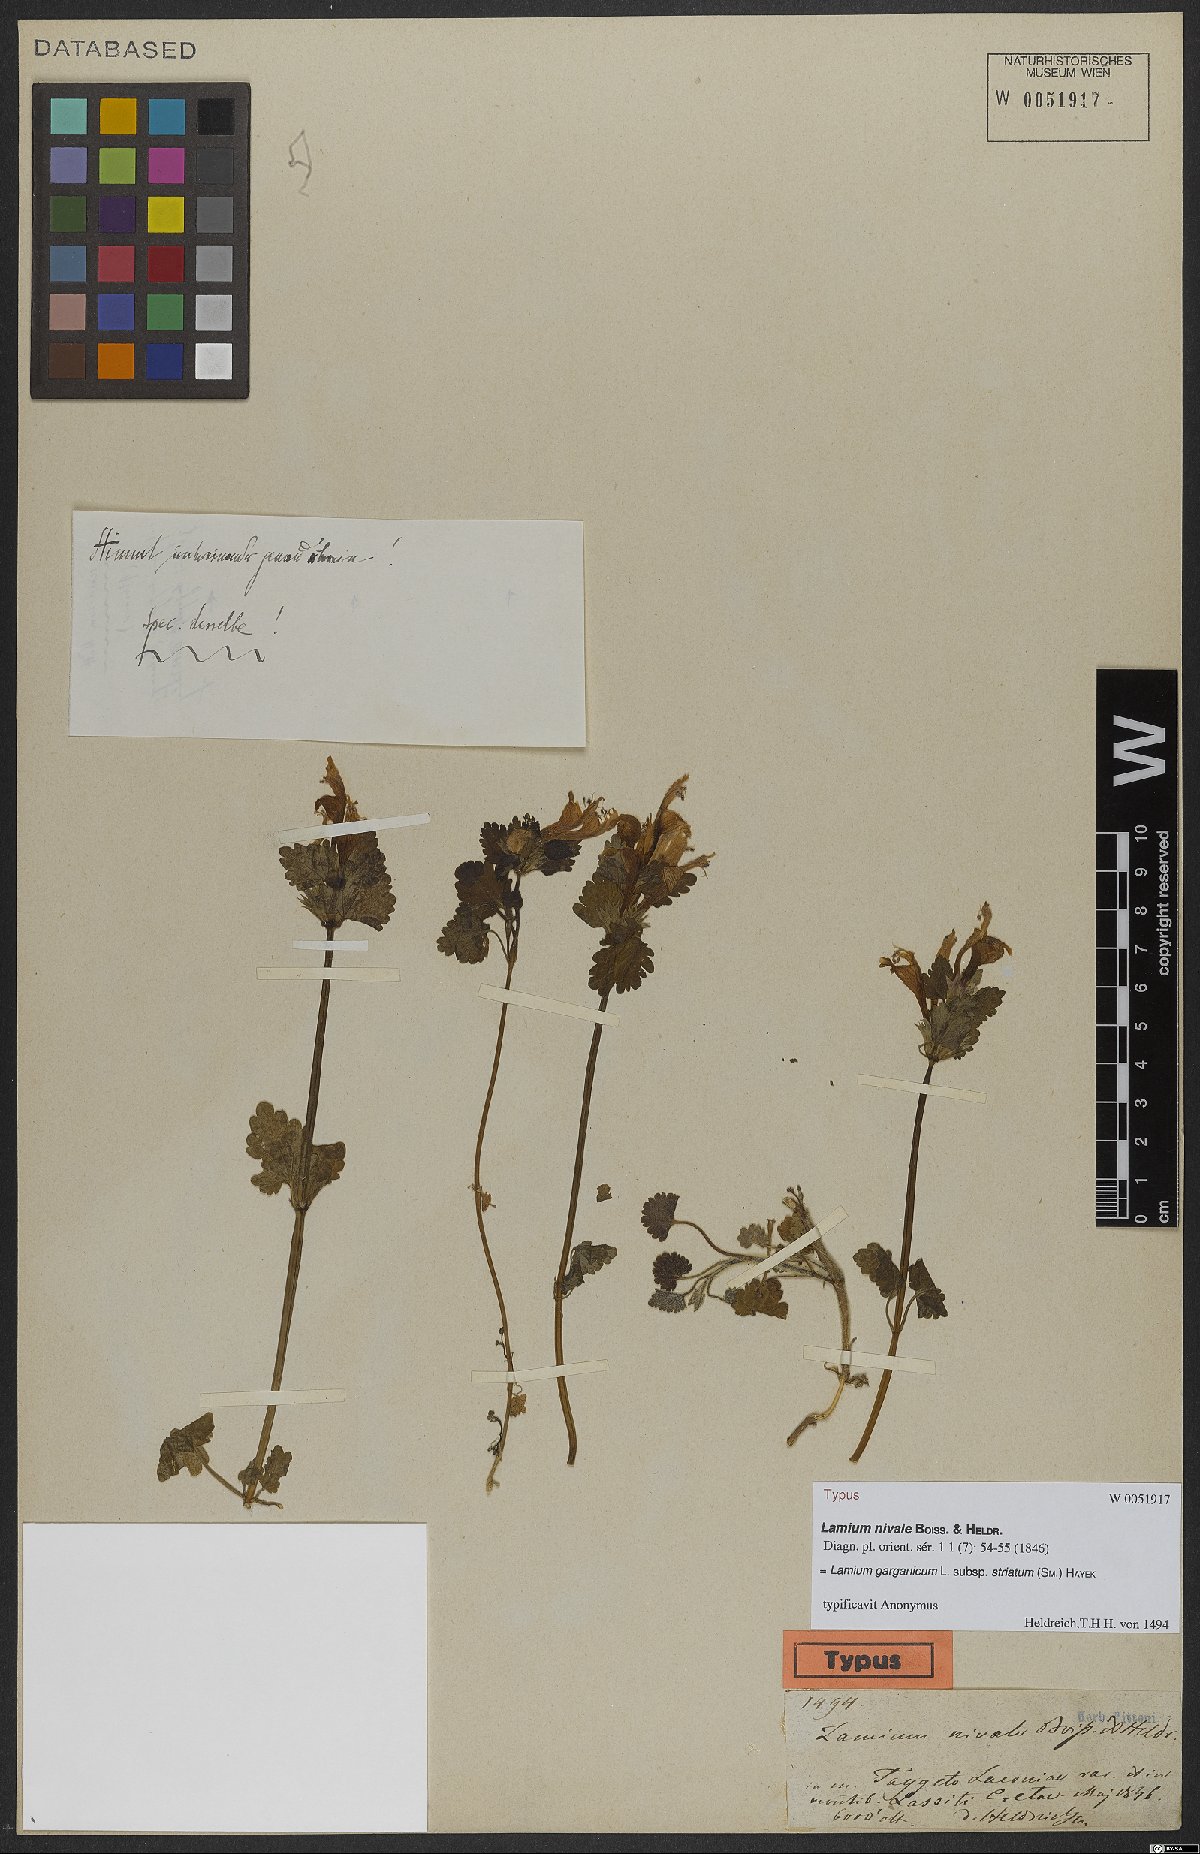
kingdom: Plantae
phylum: Tracheophyta
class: Magnoliopsida
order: Lamiales
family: Lamiaceae
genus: Lamium
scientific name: Lamium garganicum
